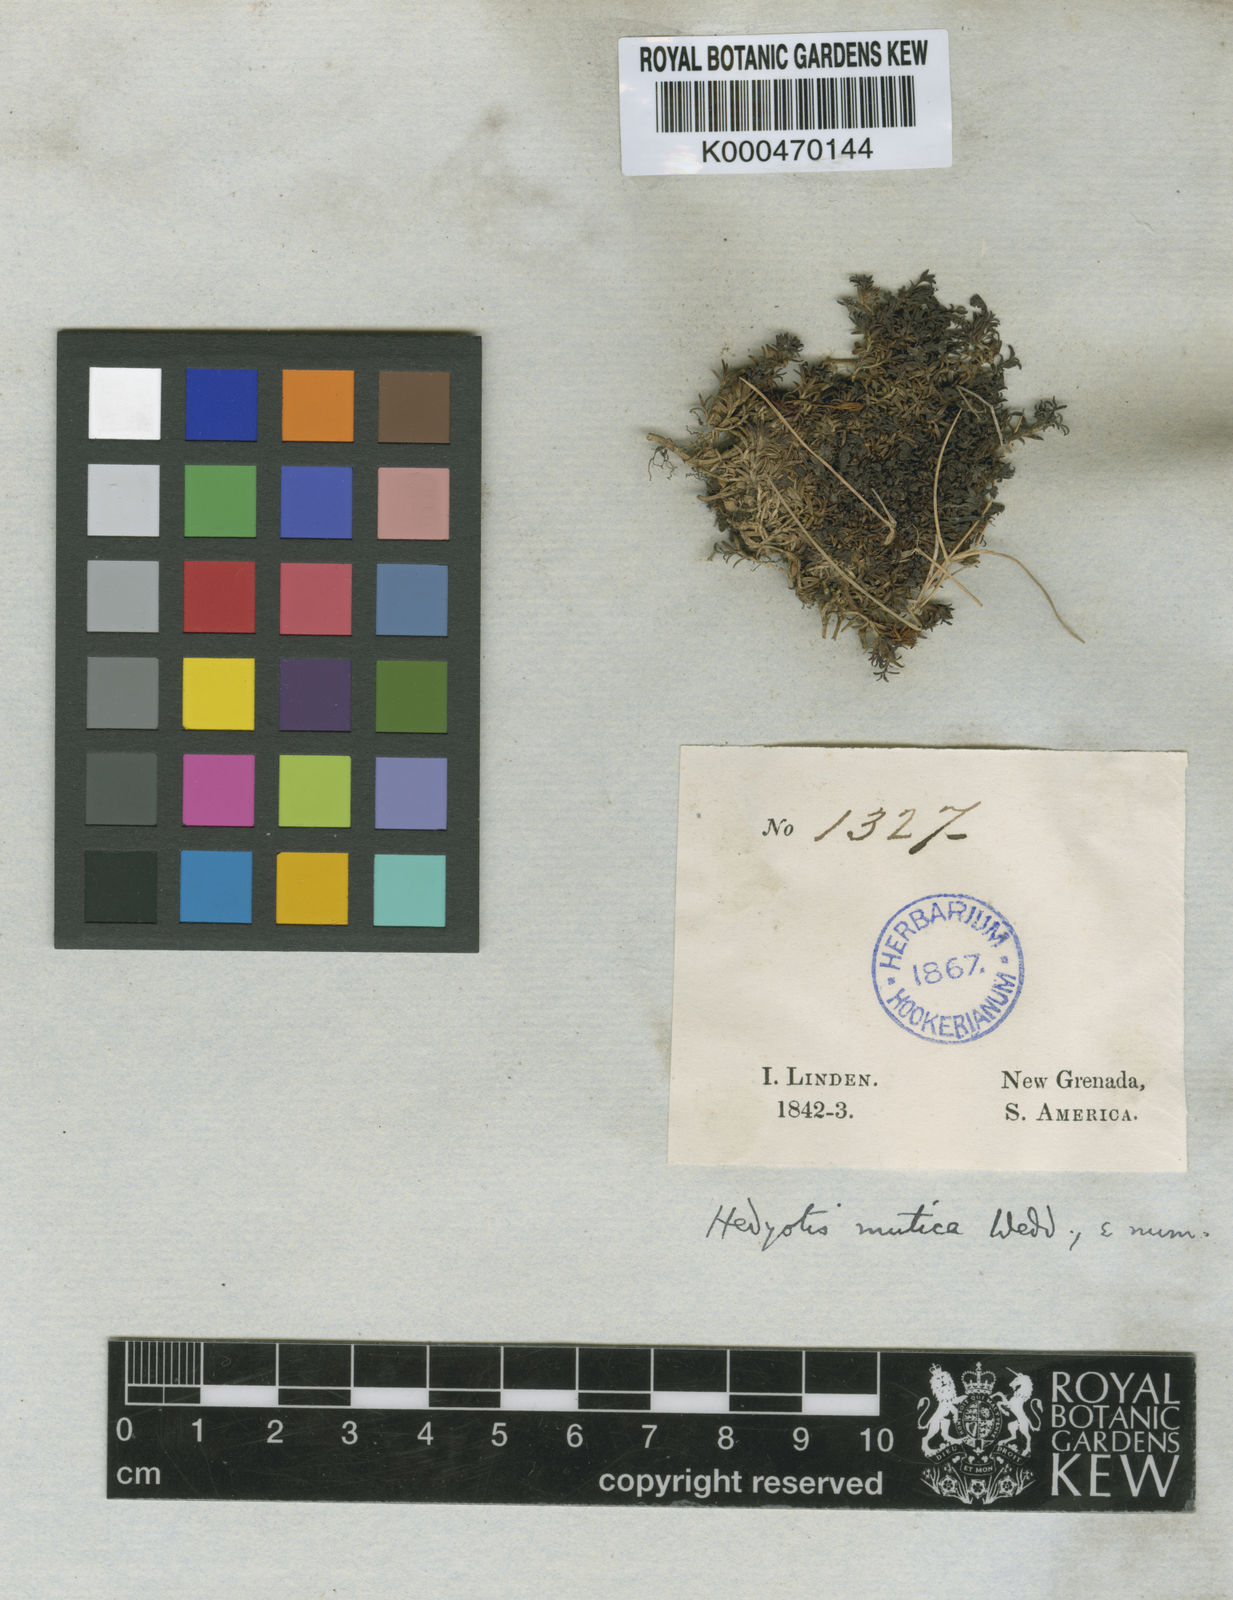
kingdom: Plantae
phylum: Tracheophyta
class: Magnoliopsida
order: Gentianales
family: Rubiaceae
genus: Arcytophyllum
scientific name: Arcytophyllum muticum
